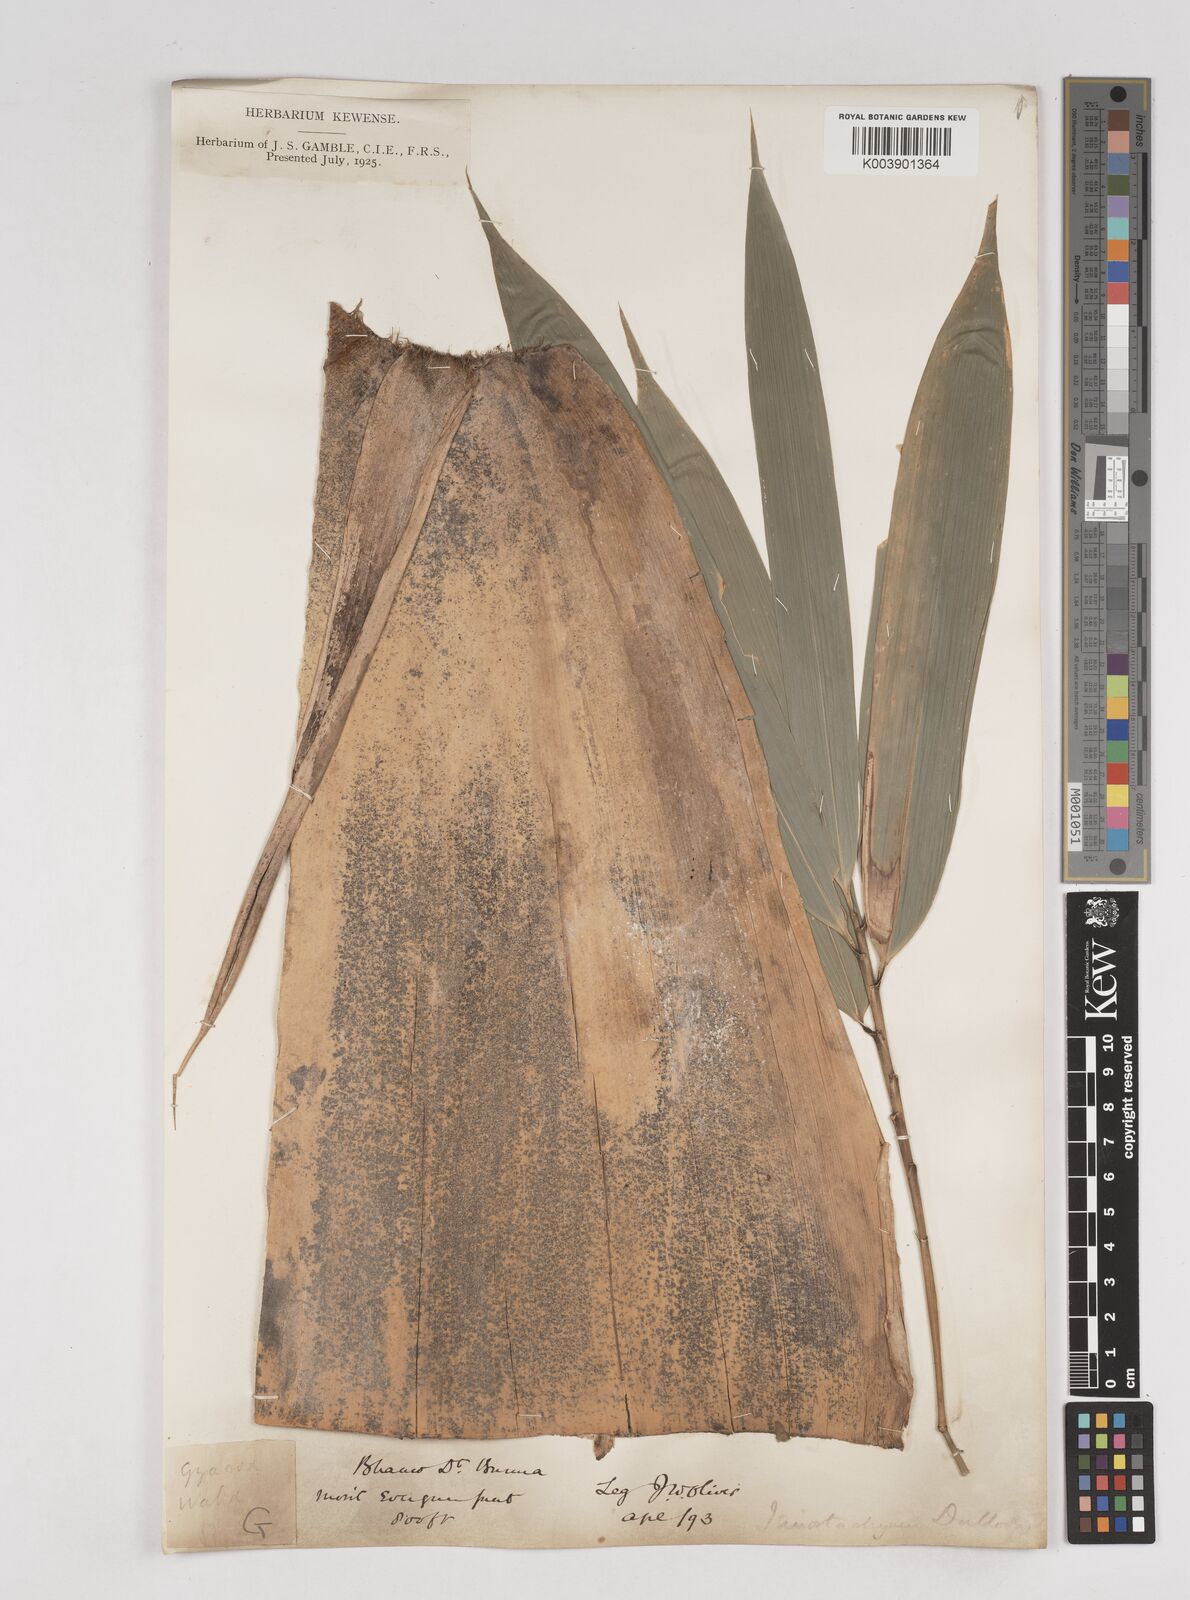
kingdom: Plantae
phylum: Tracheophyta
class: Liliopsida
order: Poales
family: Poaceae
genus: Schizostachyum
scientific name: Schizostachyum dullooa
